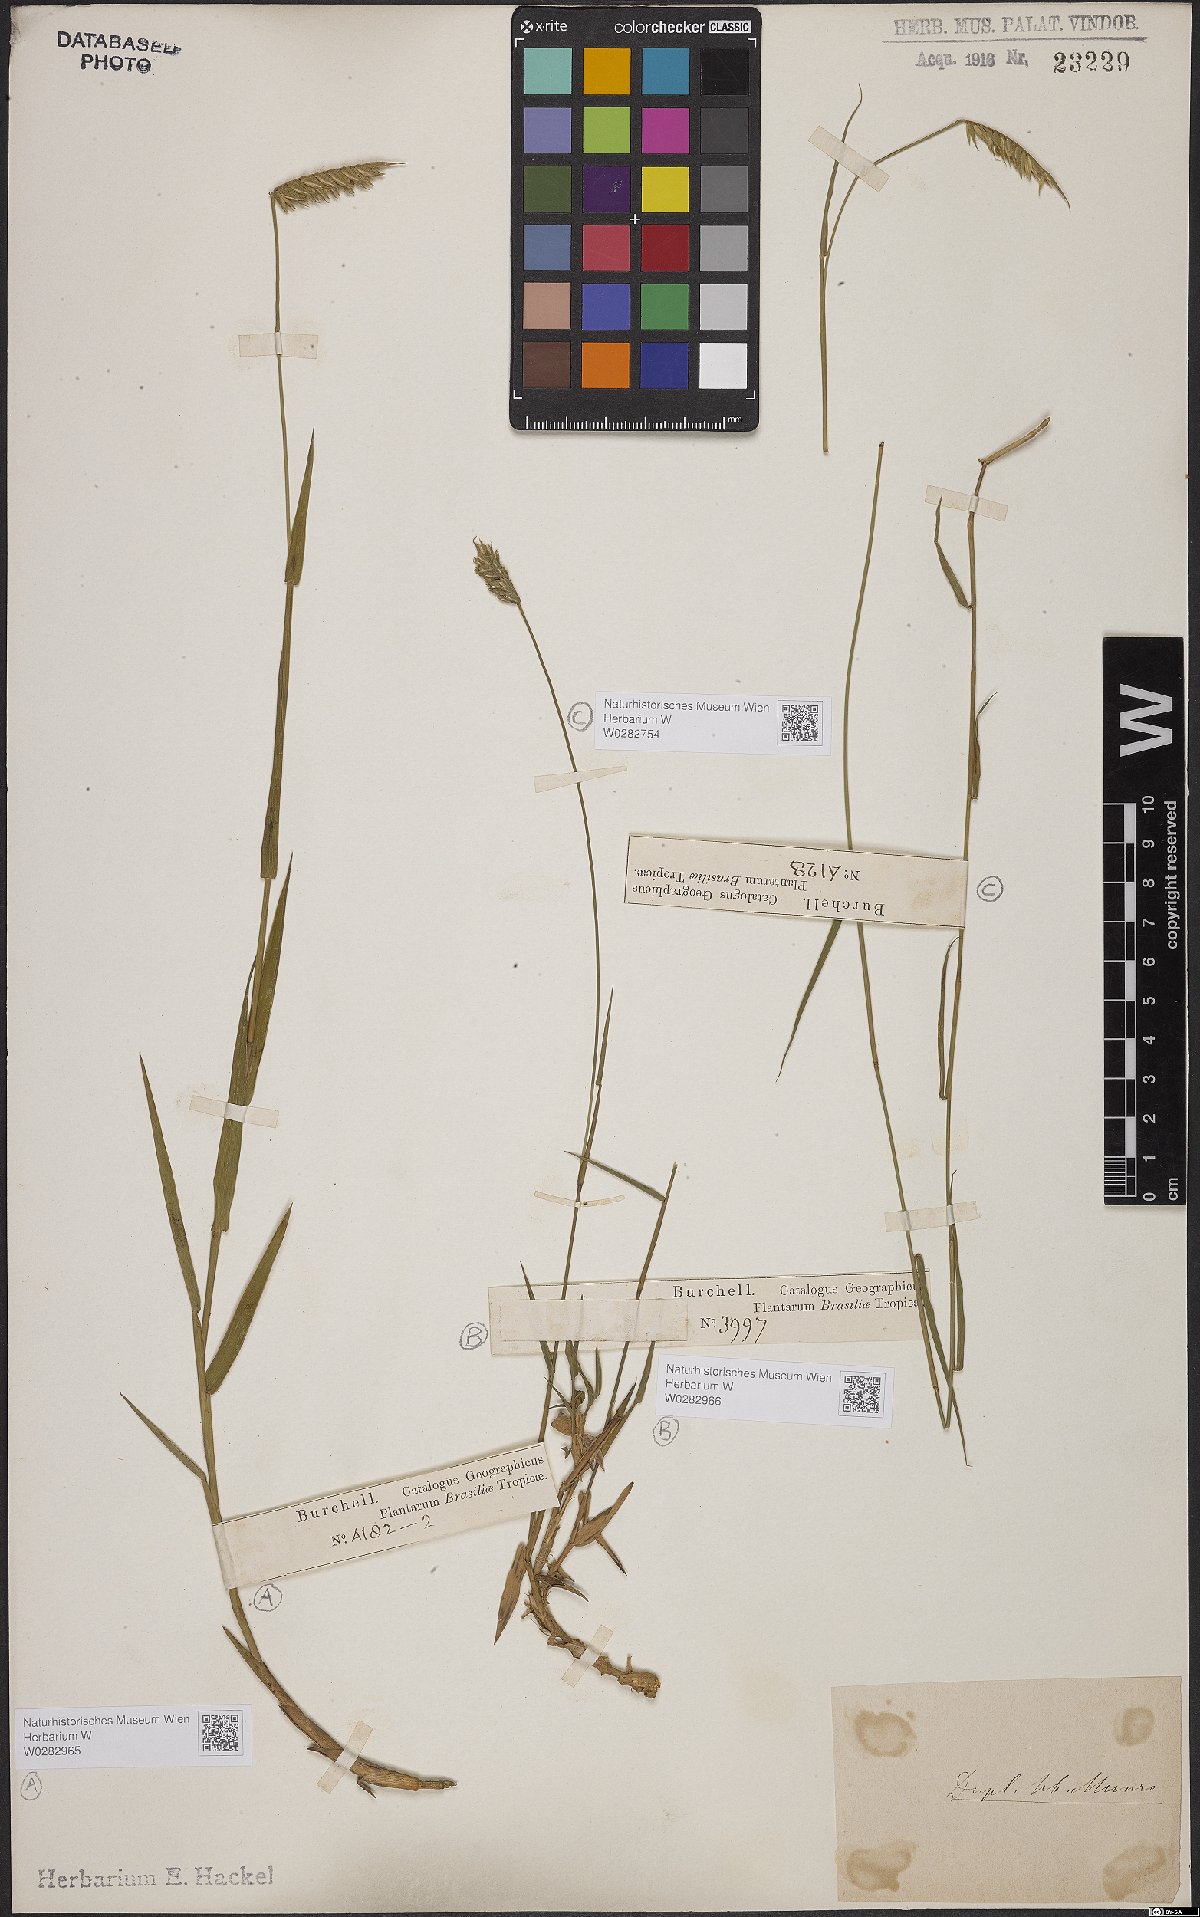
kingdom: Plantae
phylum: Tracheophyta
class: Liliopsida
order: Poales
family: Poaceae
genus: Echinolaena
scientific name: Echinolaena inflexa
